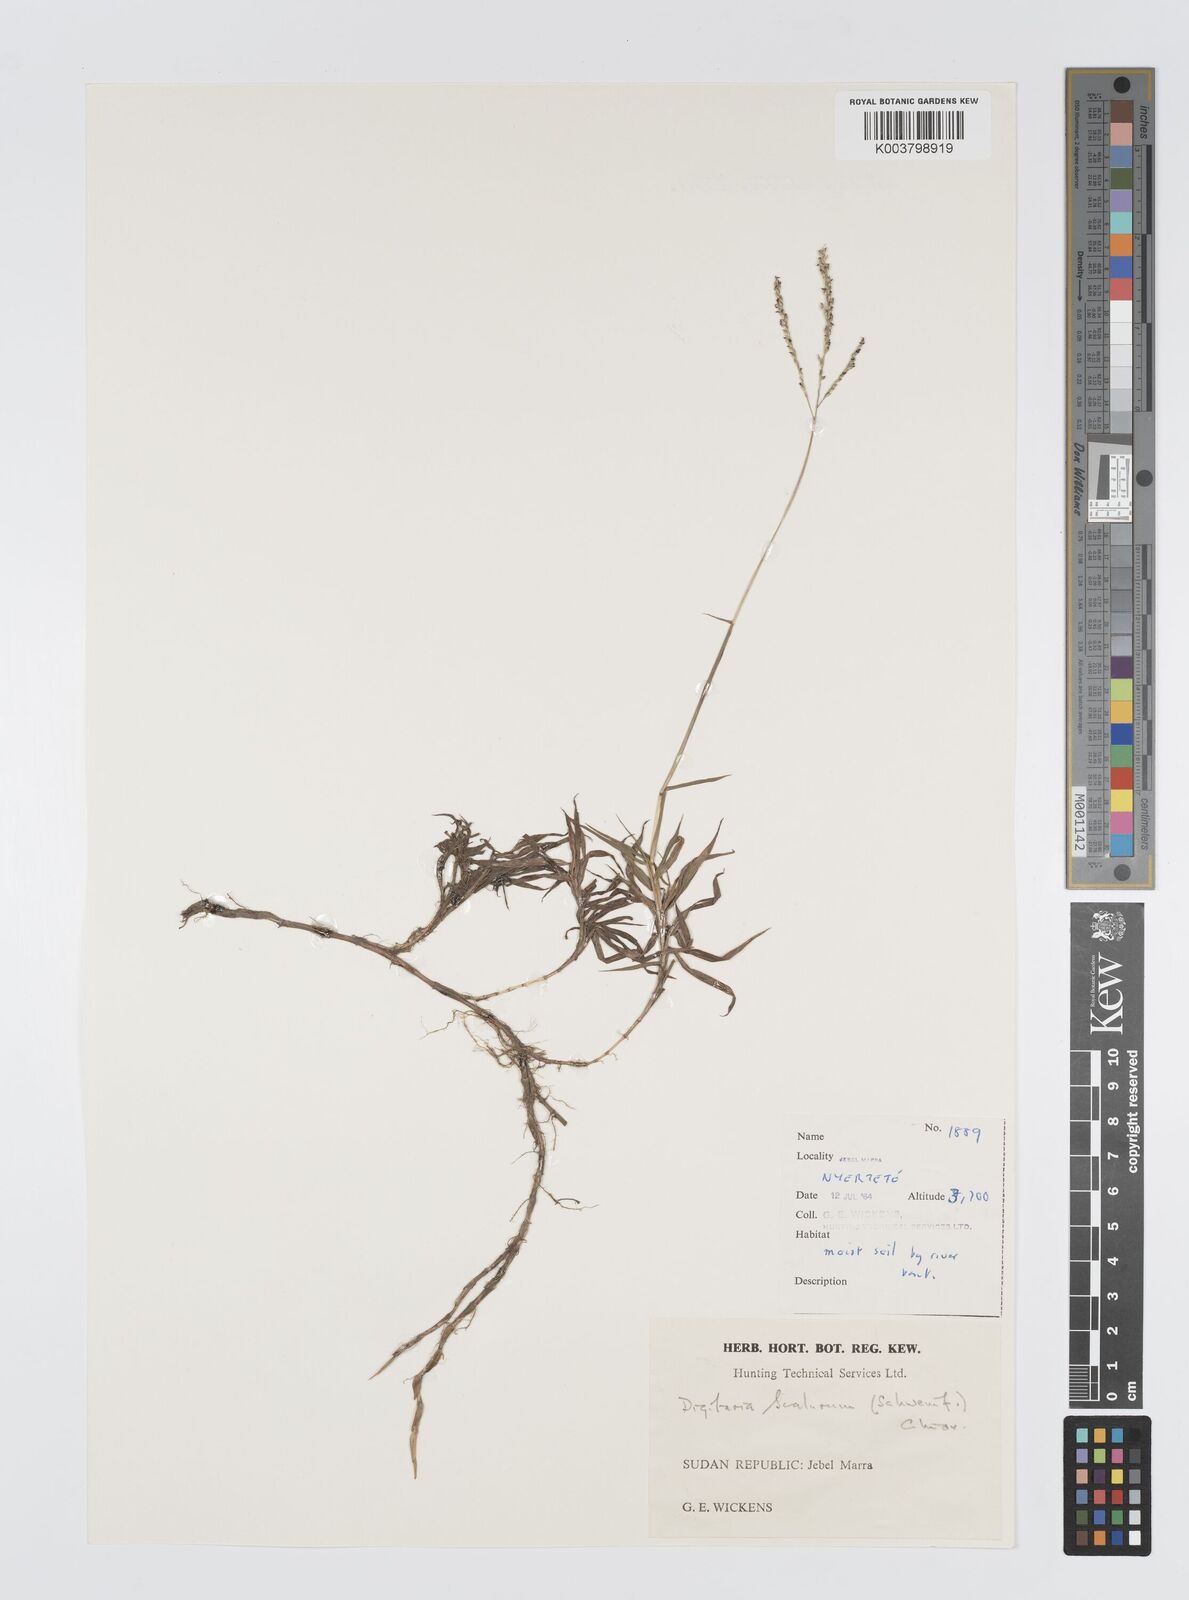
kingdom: Plantae
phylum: Tracheophyta
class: Liliopsida
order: Poales
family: Poaceae
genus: Digitaria
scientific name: Digitaria abyssinica
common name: African couchgrass
